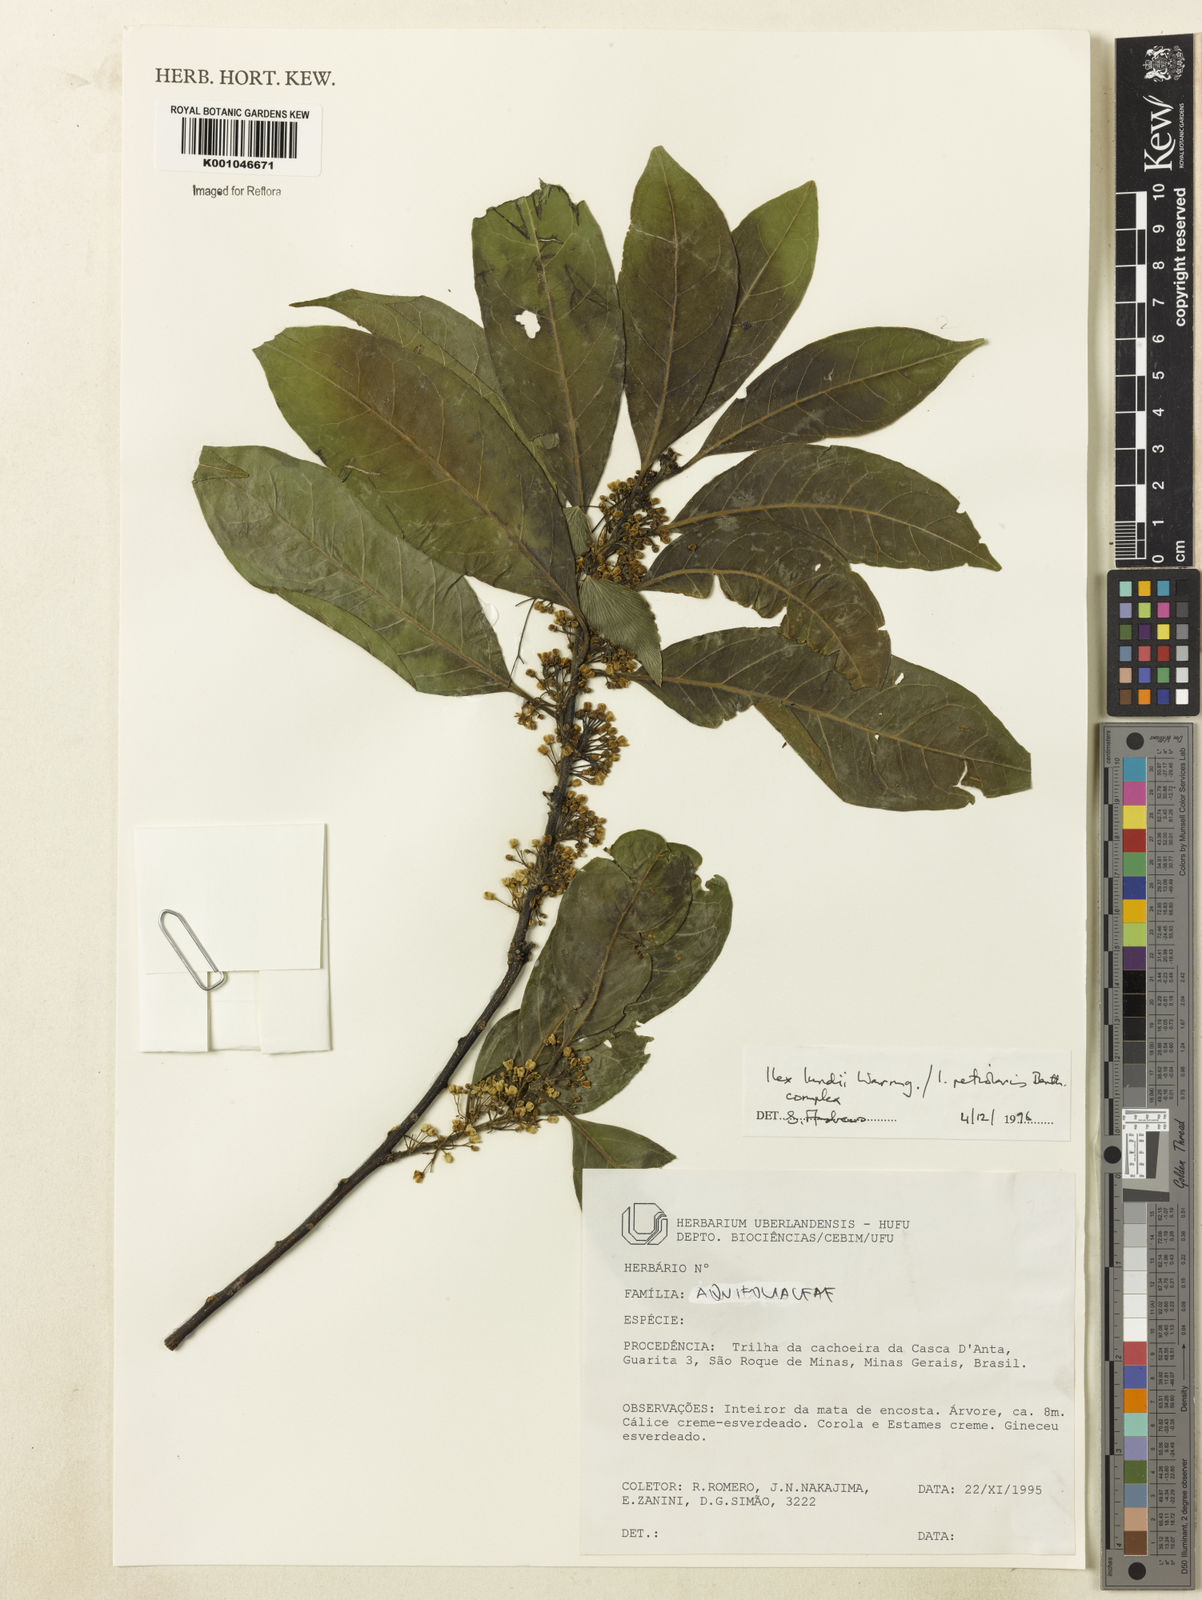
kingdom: Plantae
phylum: Tracheophyta
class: Magnoliopsida
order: Aquifoliales
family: Aquifoliaceae
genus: Ilex
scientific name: Ilex lundii
